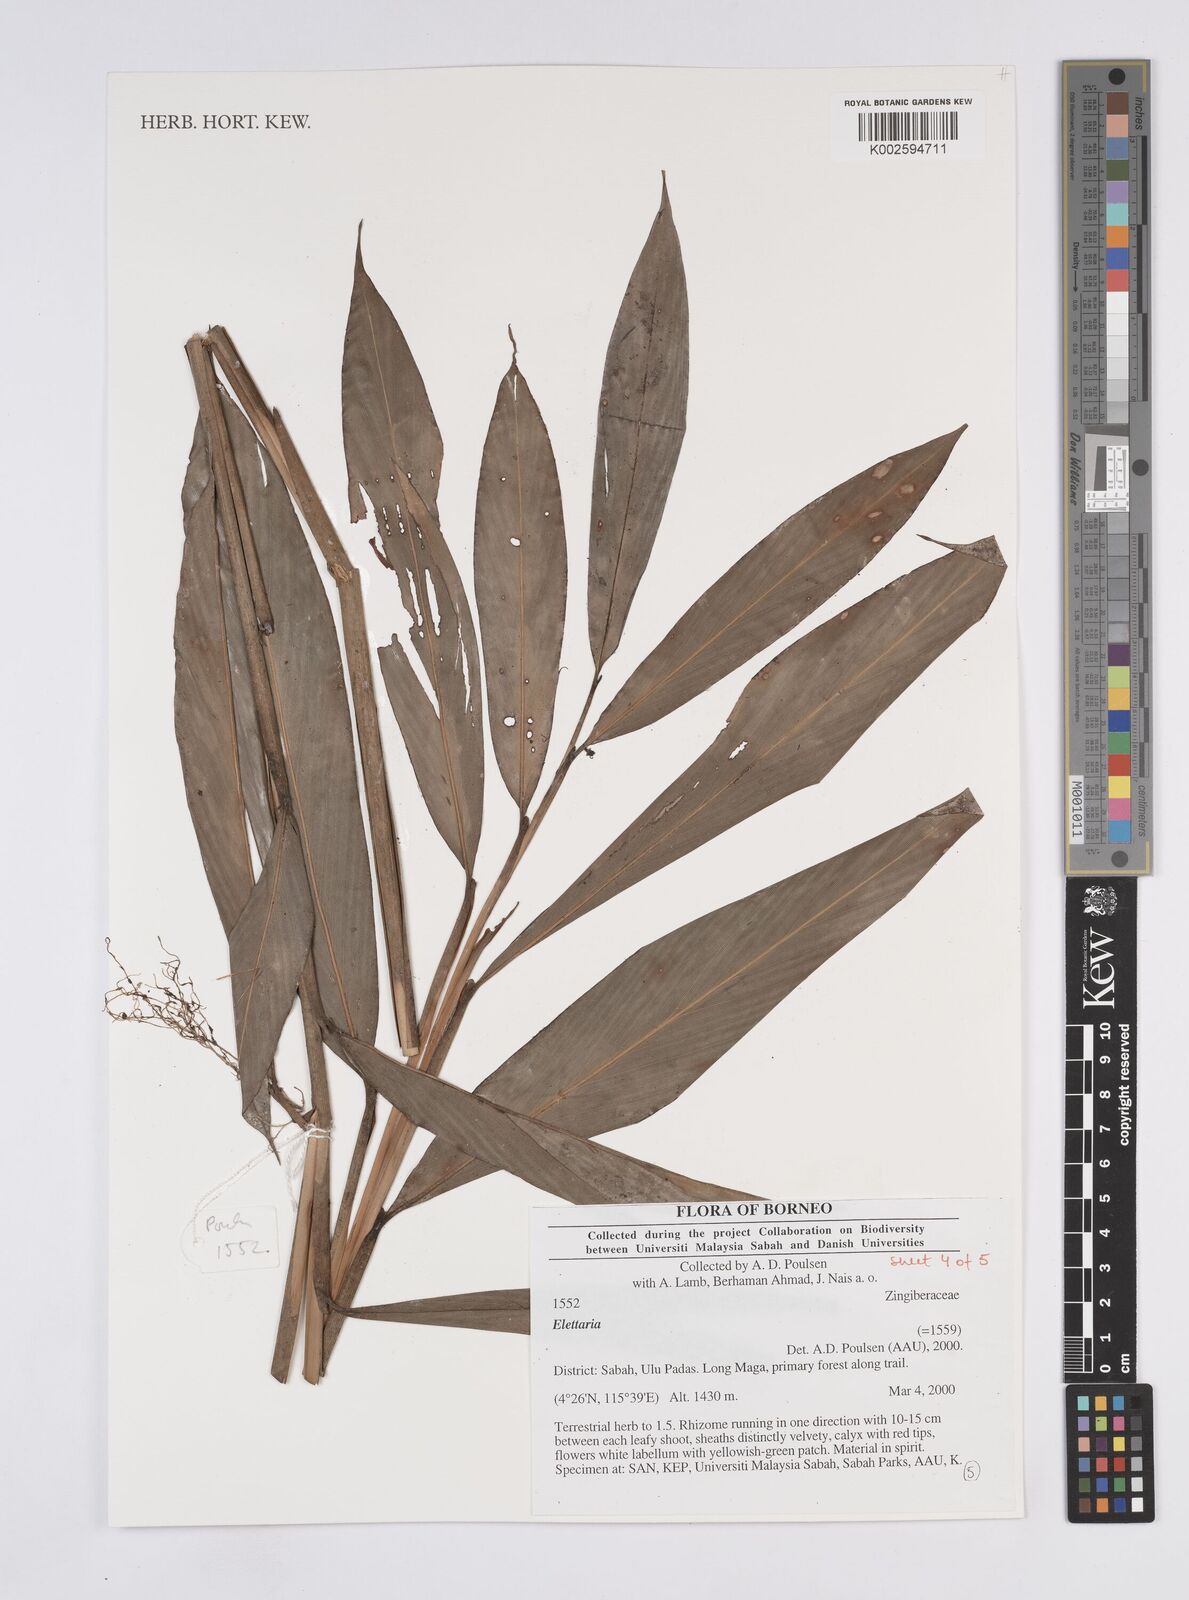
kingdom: Plantae
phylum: Tracheophyta
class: Liliopsida
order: Zingiberales
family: Zingiberaceae
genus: Elettaria
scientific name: Elettaria
